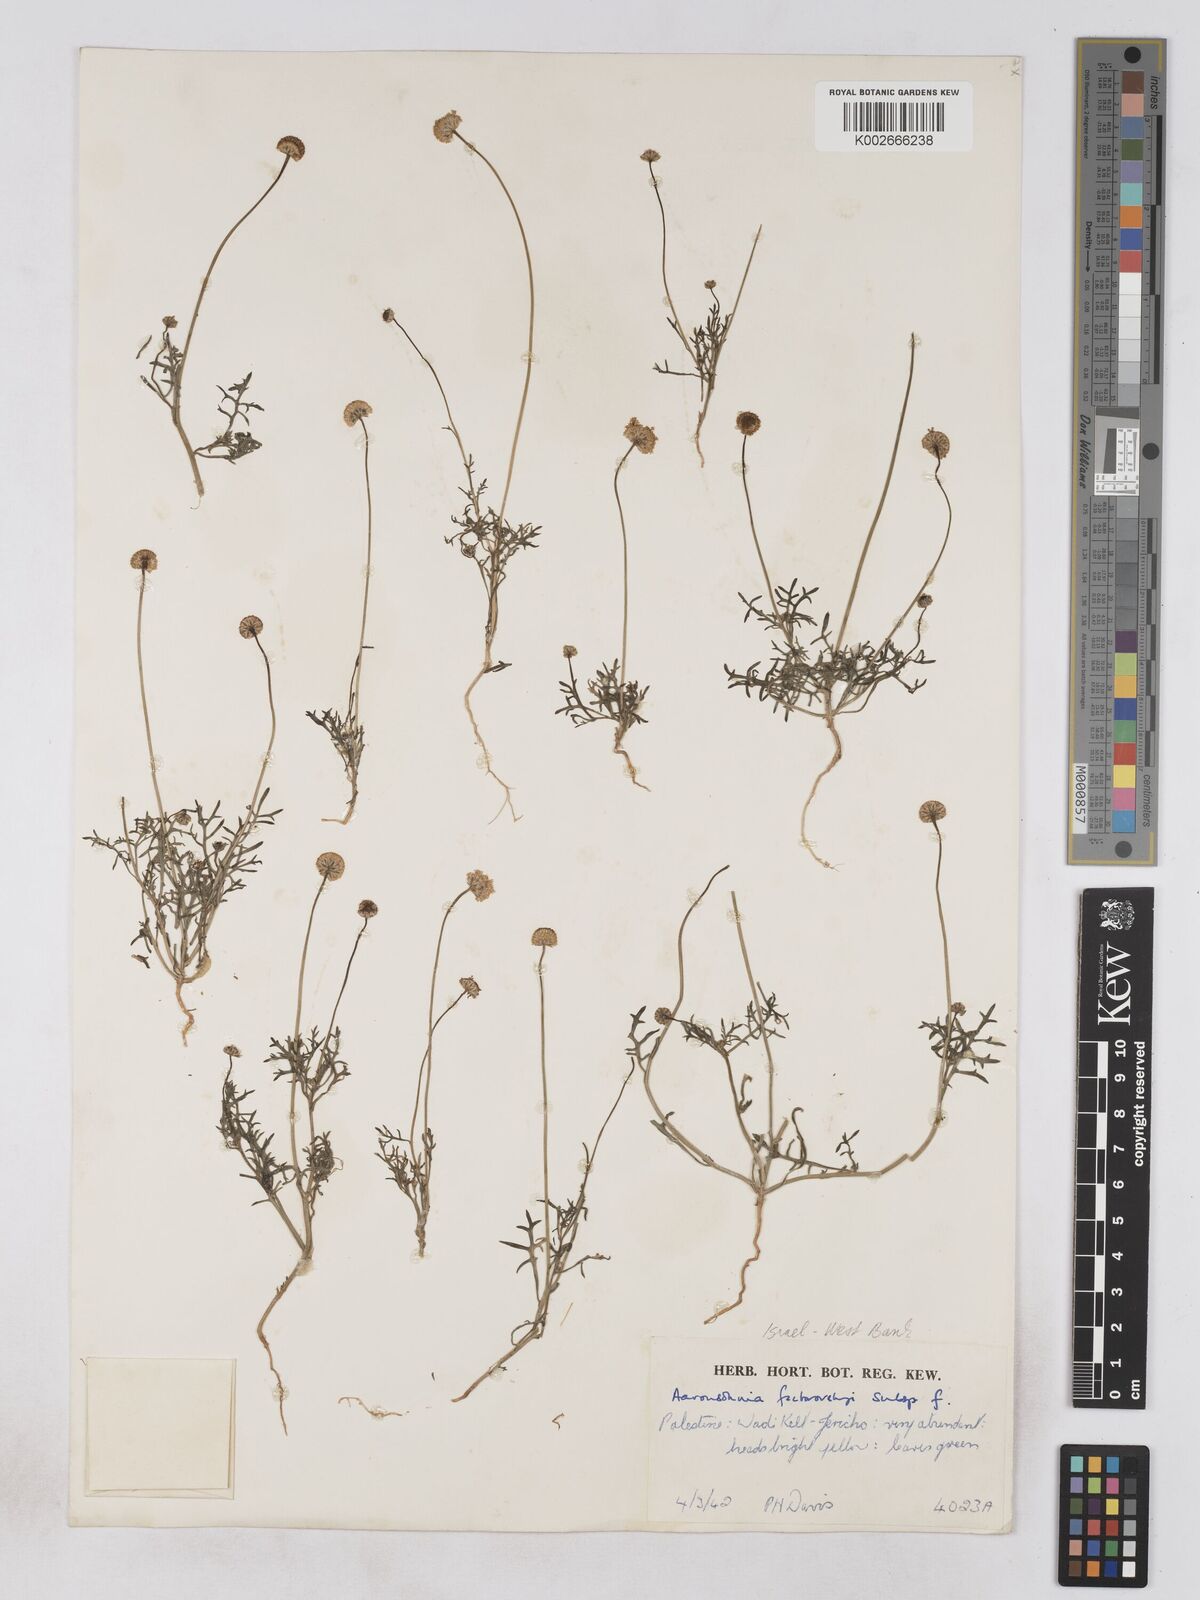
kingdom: Plantae
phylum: Tracheophyta
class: Magnoliopsida
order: Asterales
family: Asteraceae
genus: Otoglyphis
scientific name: Otoglyphis factorovskyi
